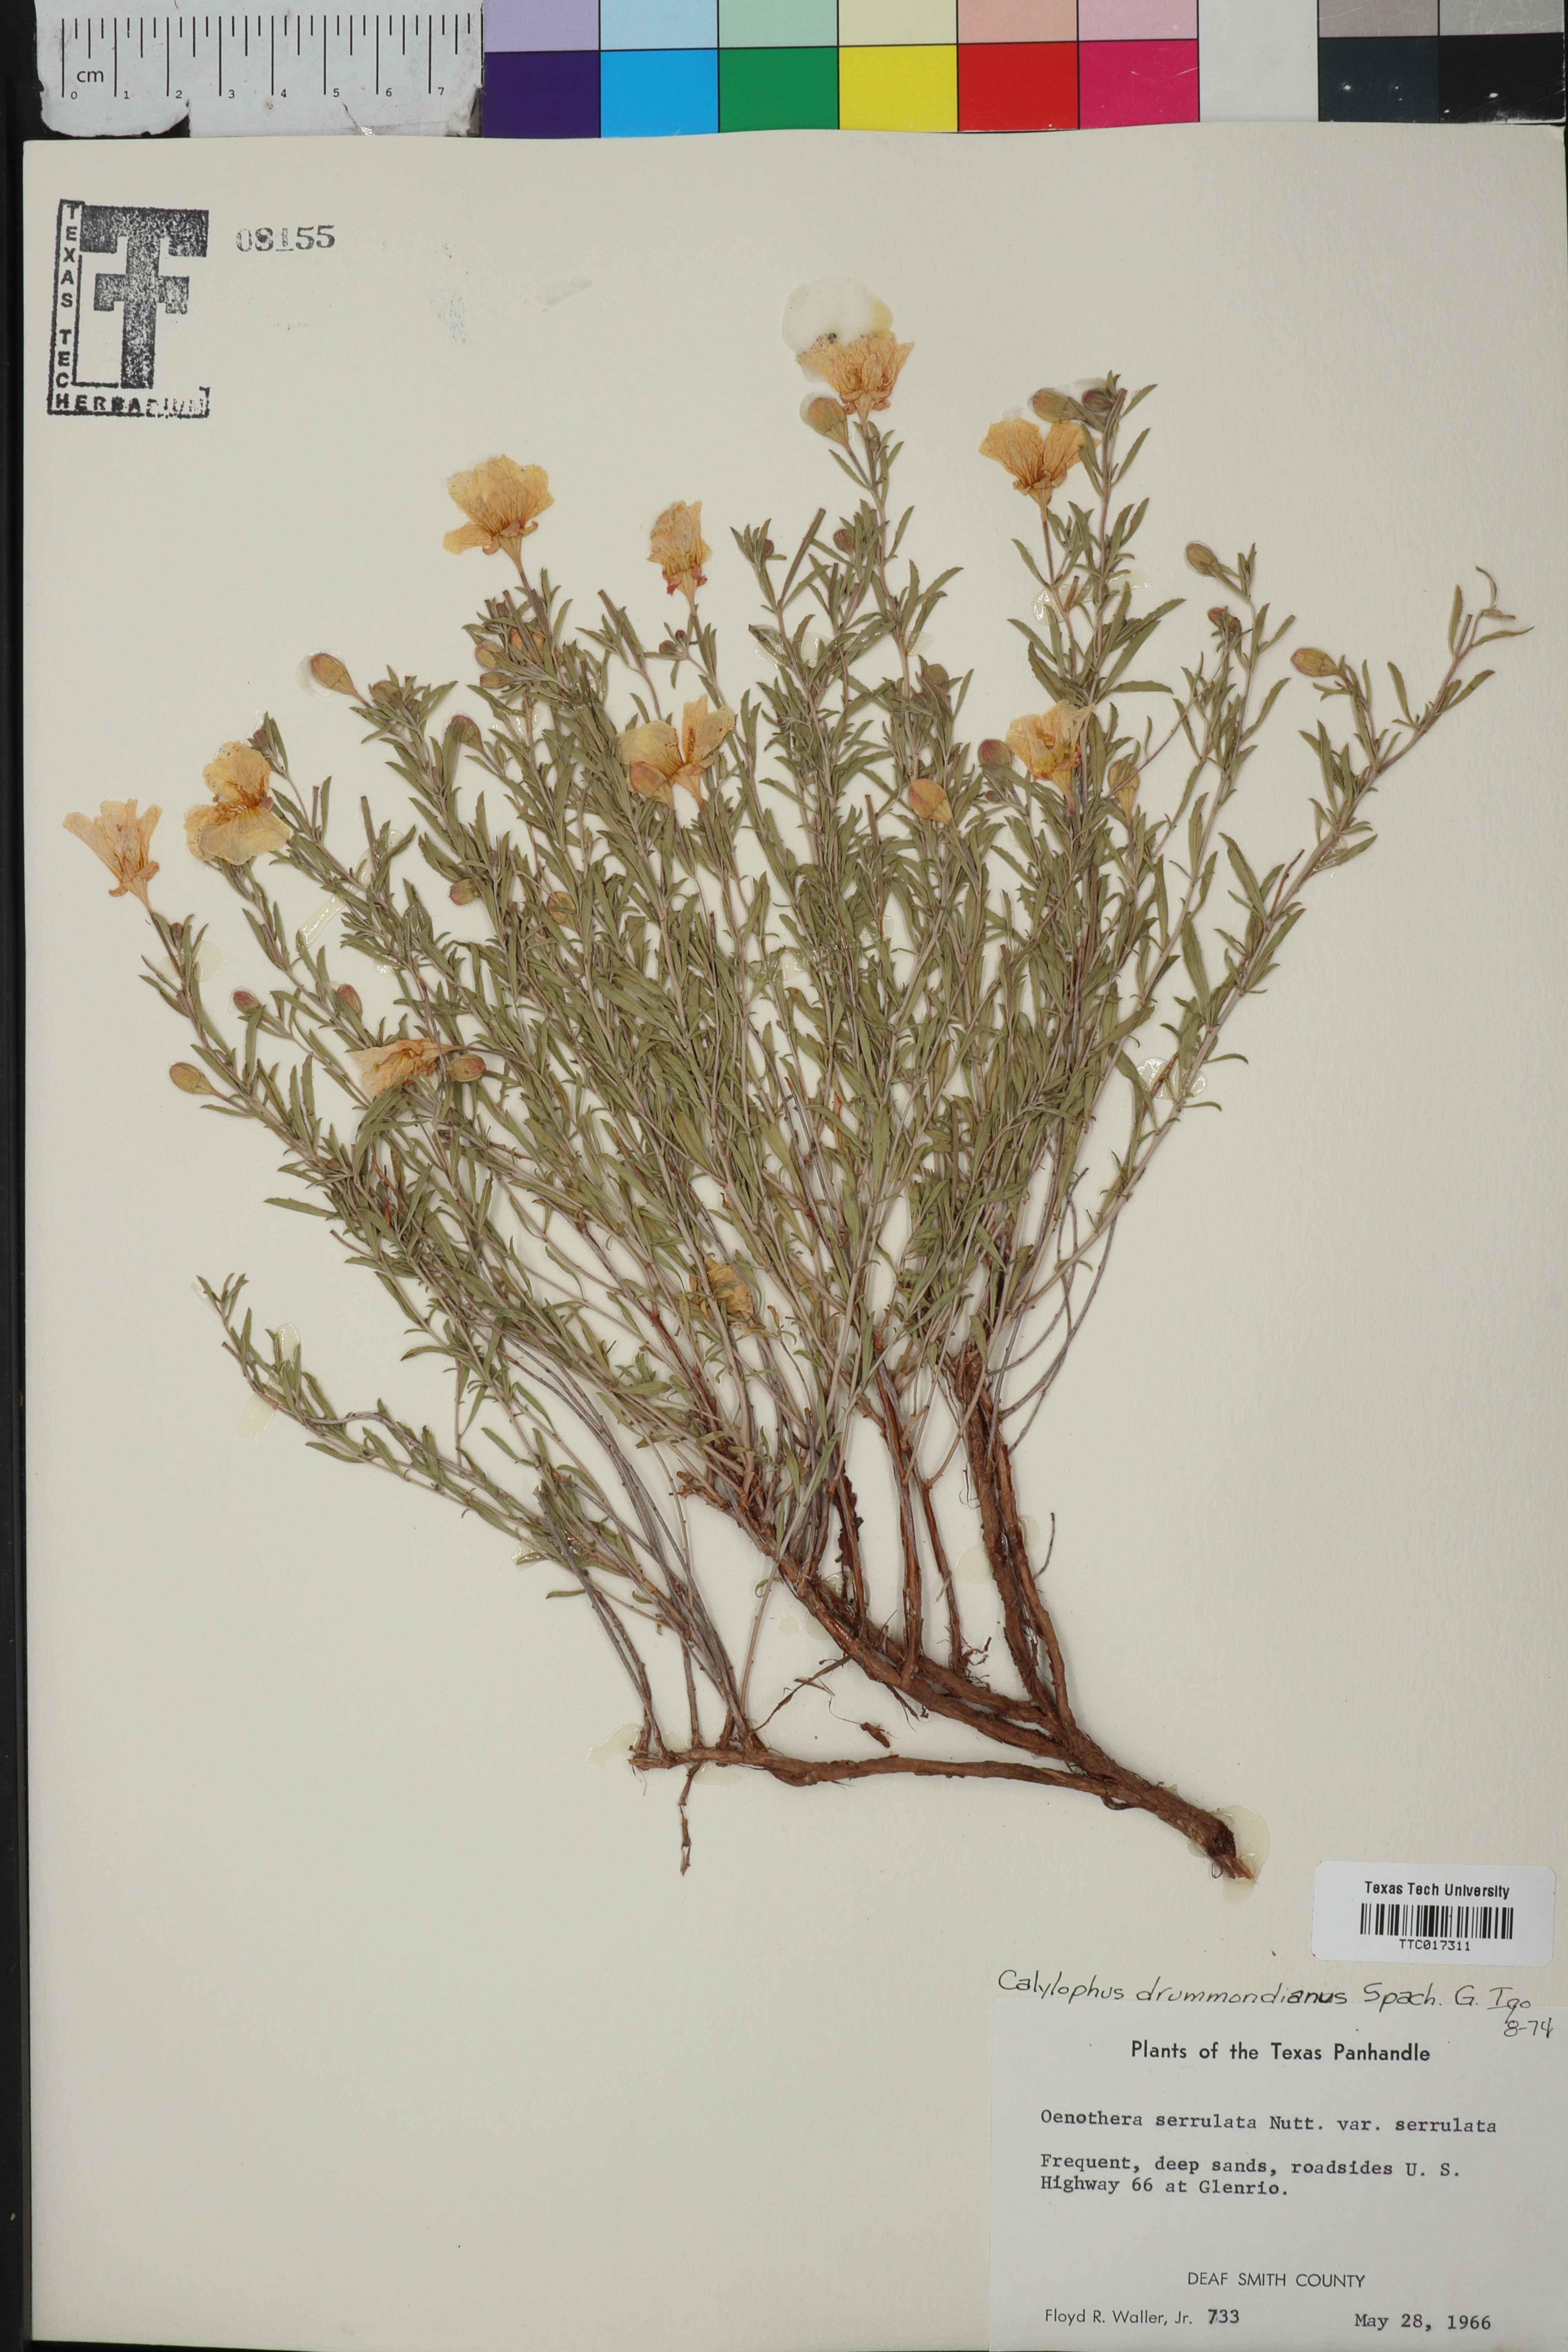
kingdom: Plantae
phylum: Tracheophyta
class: Magnoliopsida
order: Myrtales
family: Onagraceae
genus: Oenothera
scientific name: Oenothera serrulata
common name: Half-shrub calylophus
